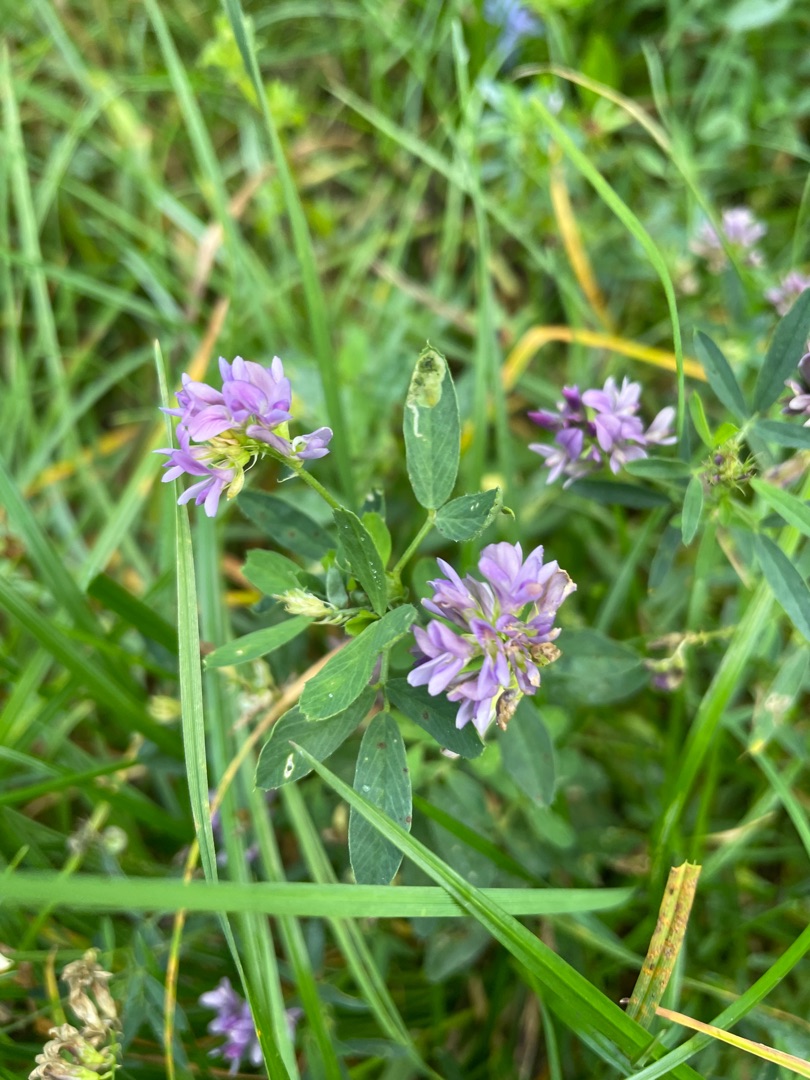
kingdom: Plantae
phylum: Tracheophyta
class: Magnoliopsida
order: Fabales
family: Fabaceae
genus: Medicago
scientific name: Medicago sativa
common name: Lucerne
